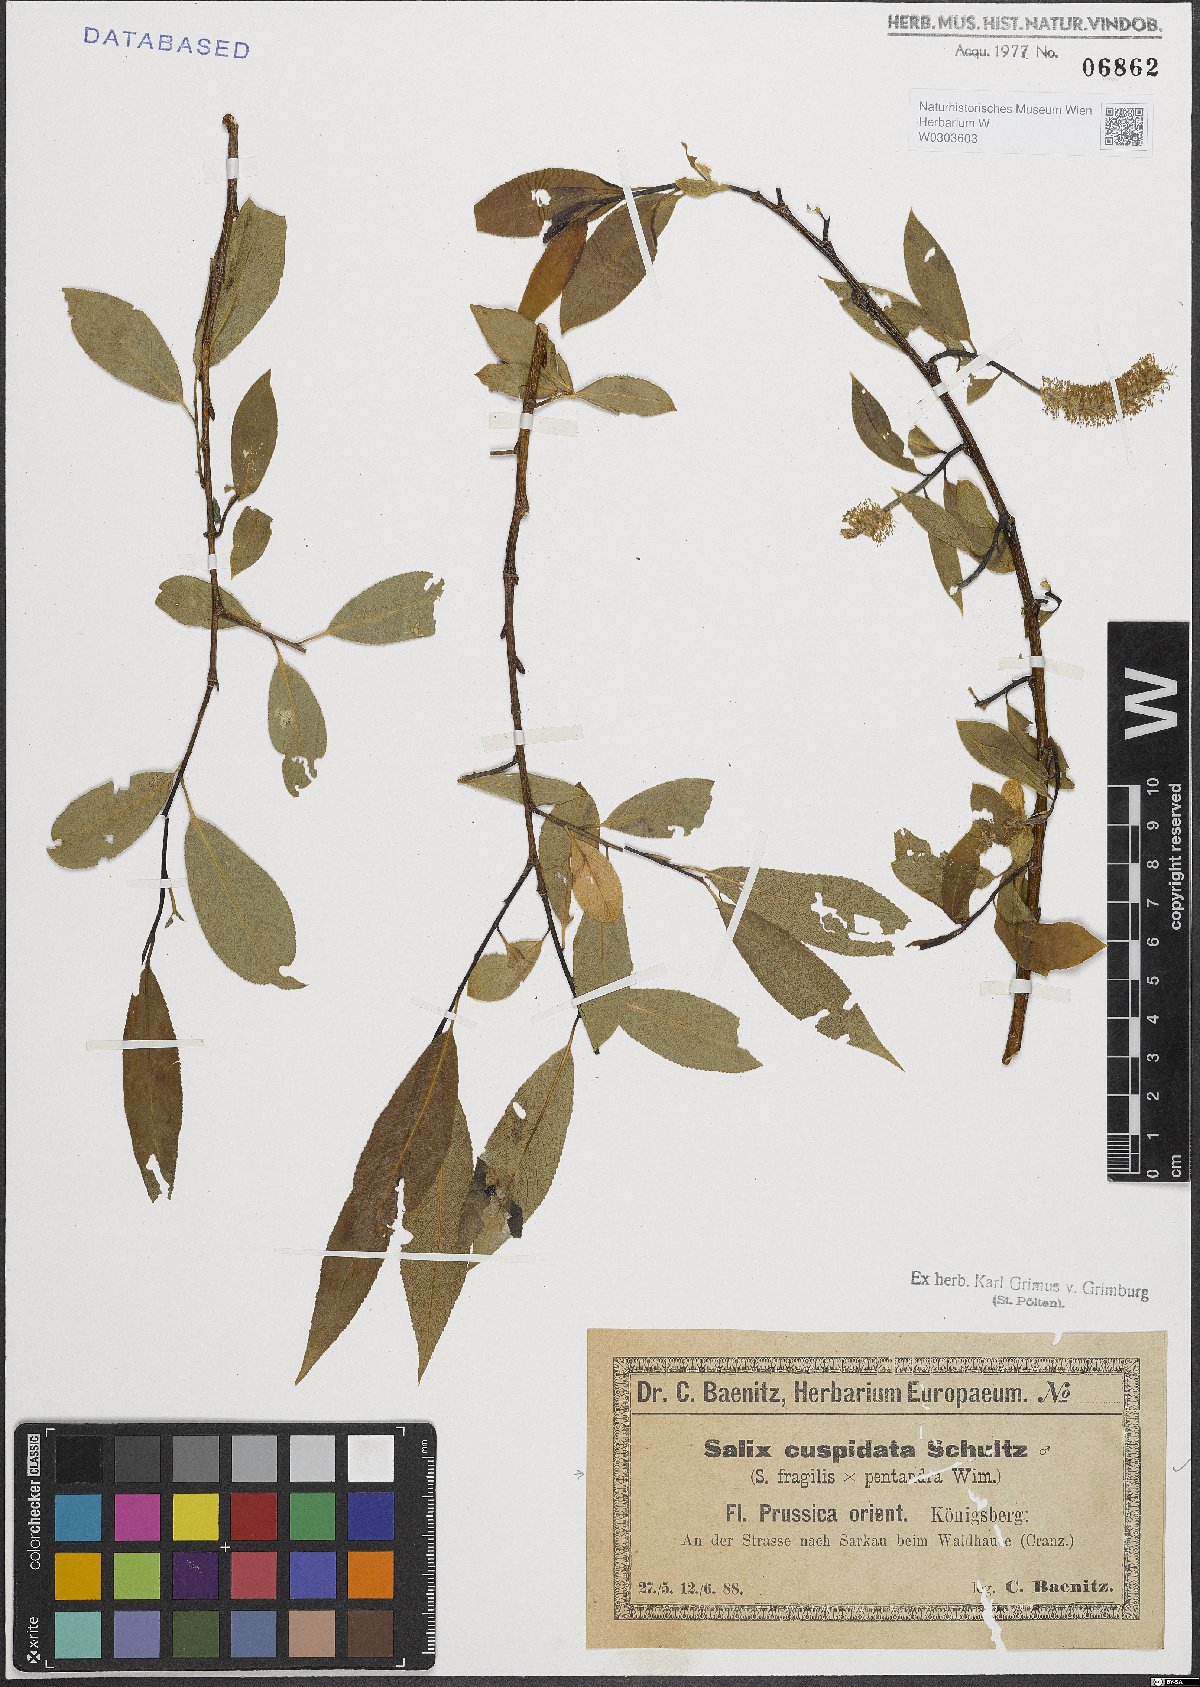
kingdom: Plantae
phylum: Tracheophyta
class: Magnoliopsida
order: Malpighiales
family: Salicaceae
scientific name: Salicaceae
